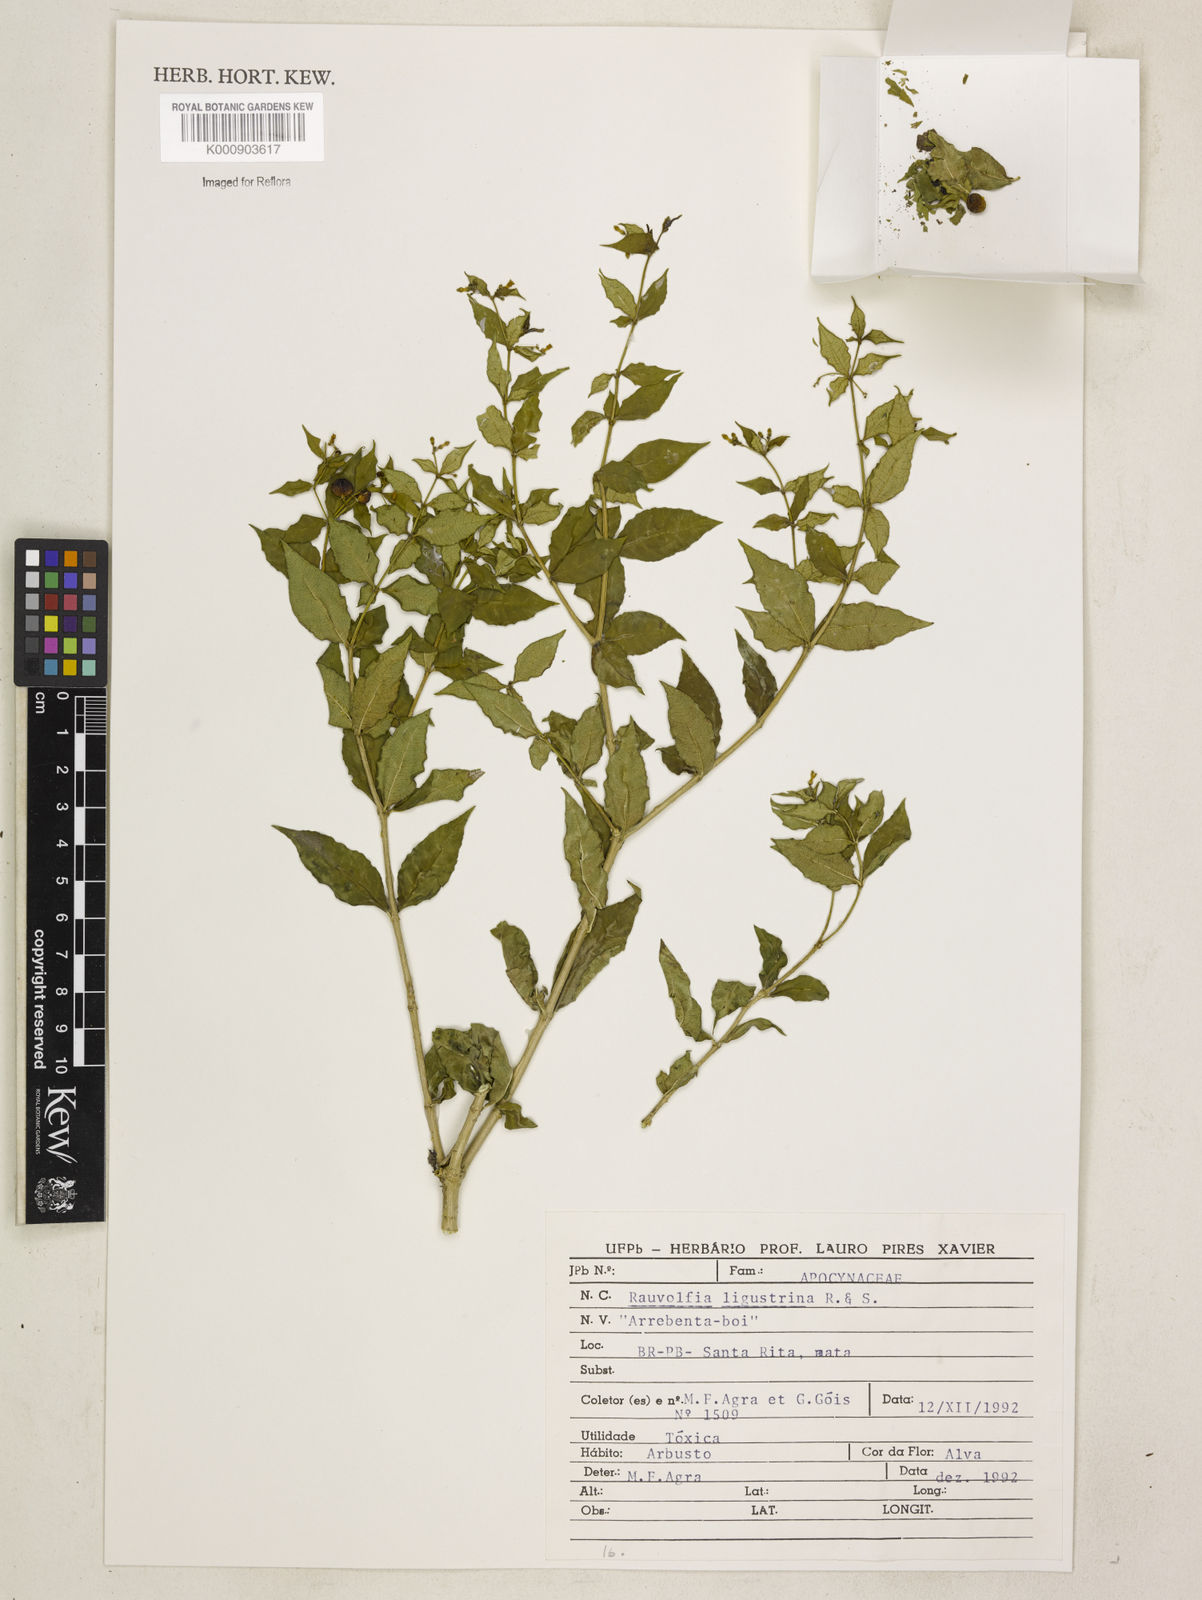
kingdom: Plantae
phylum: Tracheophyta
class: Magnoliopsida
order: Gentianales
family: Apocynaceae
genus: Rauvolfia
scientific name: Rauvolfia ligustrina
